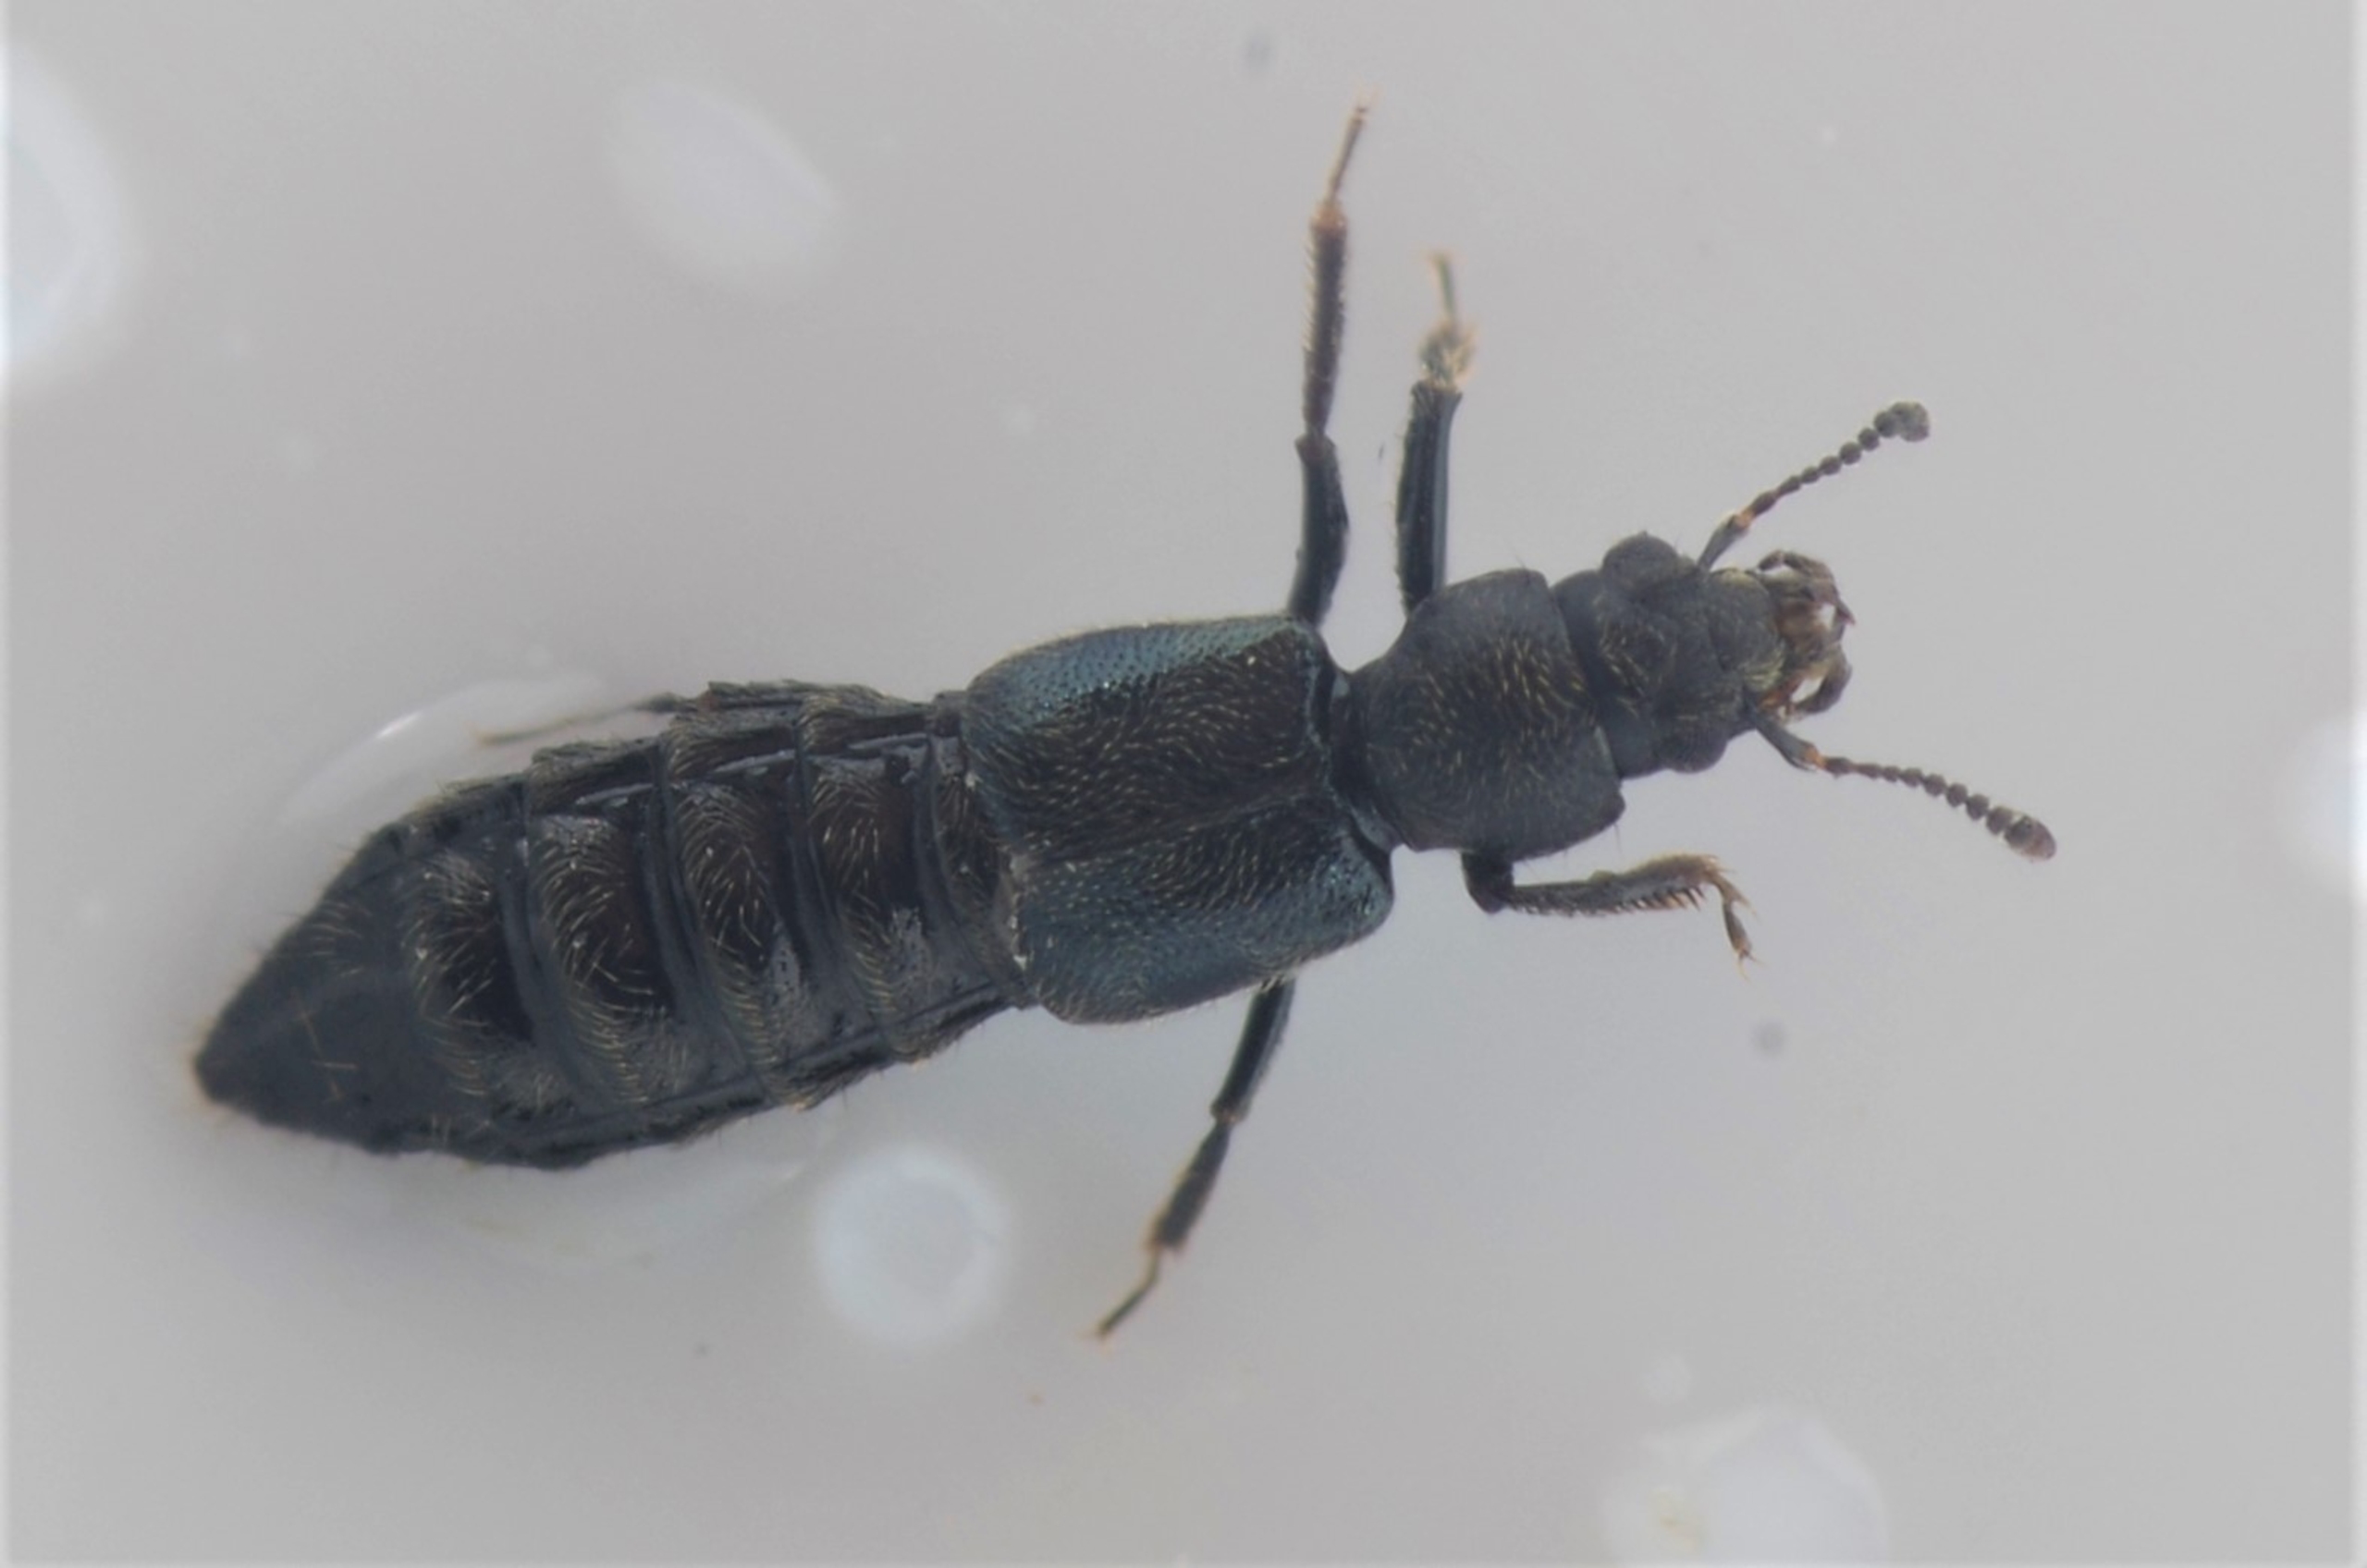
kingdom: Animalia
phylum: Arthropoda
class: Insecta
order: Coleoptera
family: Staphylinidae
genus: Bledius
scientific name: Bledius talpa
